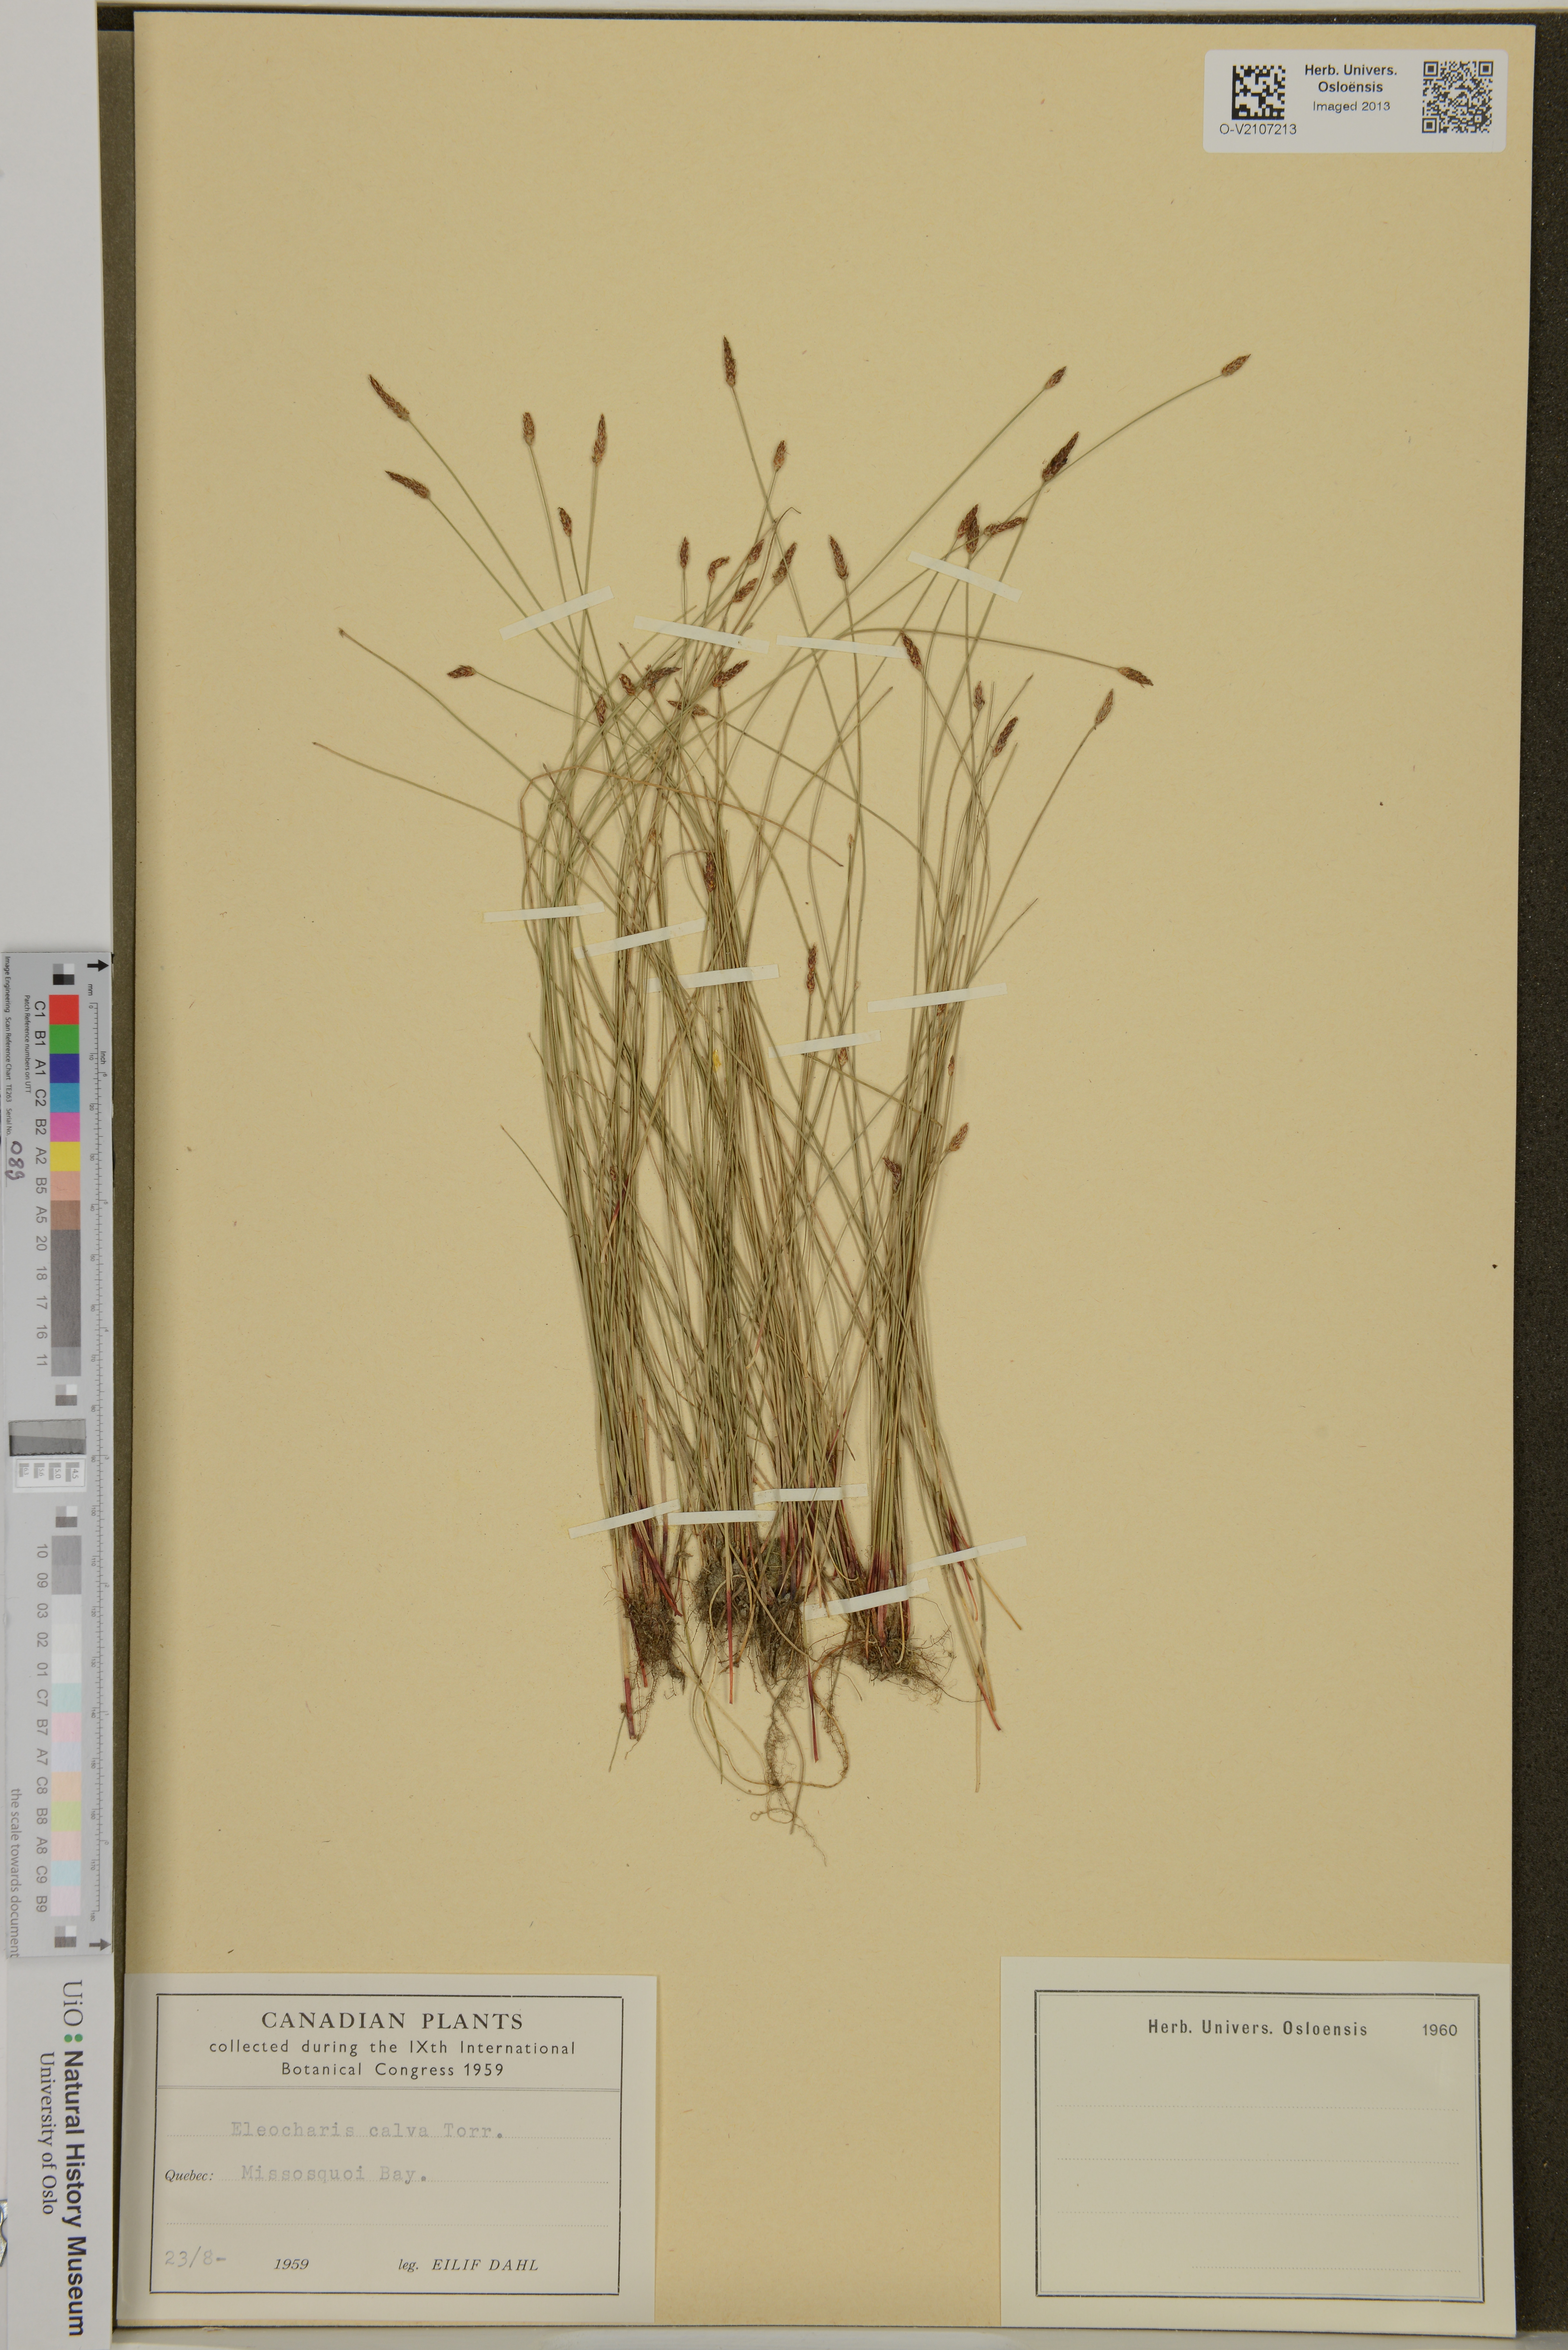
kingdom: Plantae
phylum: Tracheophyta
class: Liliopsida
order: Poales
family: Cyperaceae
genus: Eleocharis
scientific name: Eleocharis calva
